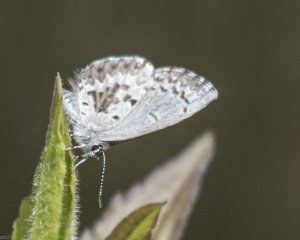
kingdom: Animalia
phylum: Arthropoda
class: Insecta
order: Lepidoptera
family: Lycaenidae
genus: Celastrina
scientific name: Celastrina lucia
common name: Northern Spring Azure
